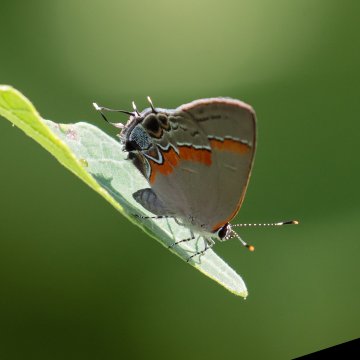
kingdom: Animalia
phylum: Arthropoda
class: Insecta
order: Lepidoptera
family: Lycaenidae
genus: Calycopis
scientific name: Calycopis cecrops
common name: Red-banded Hairstreak
